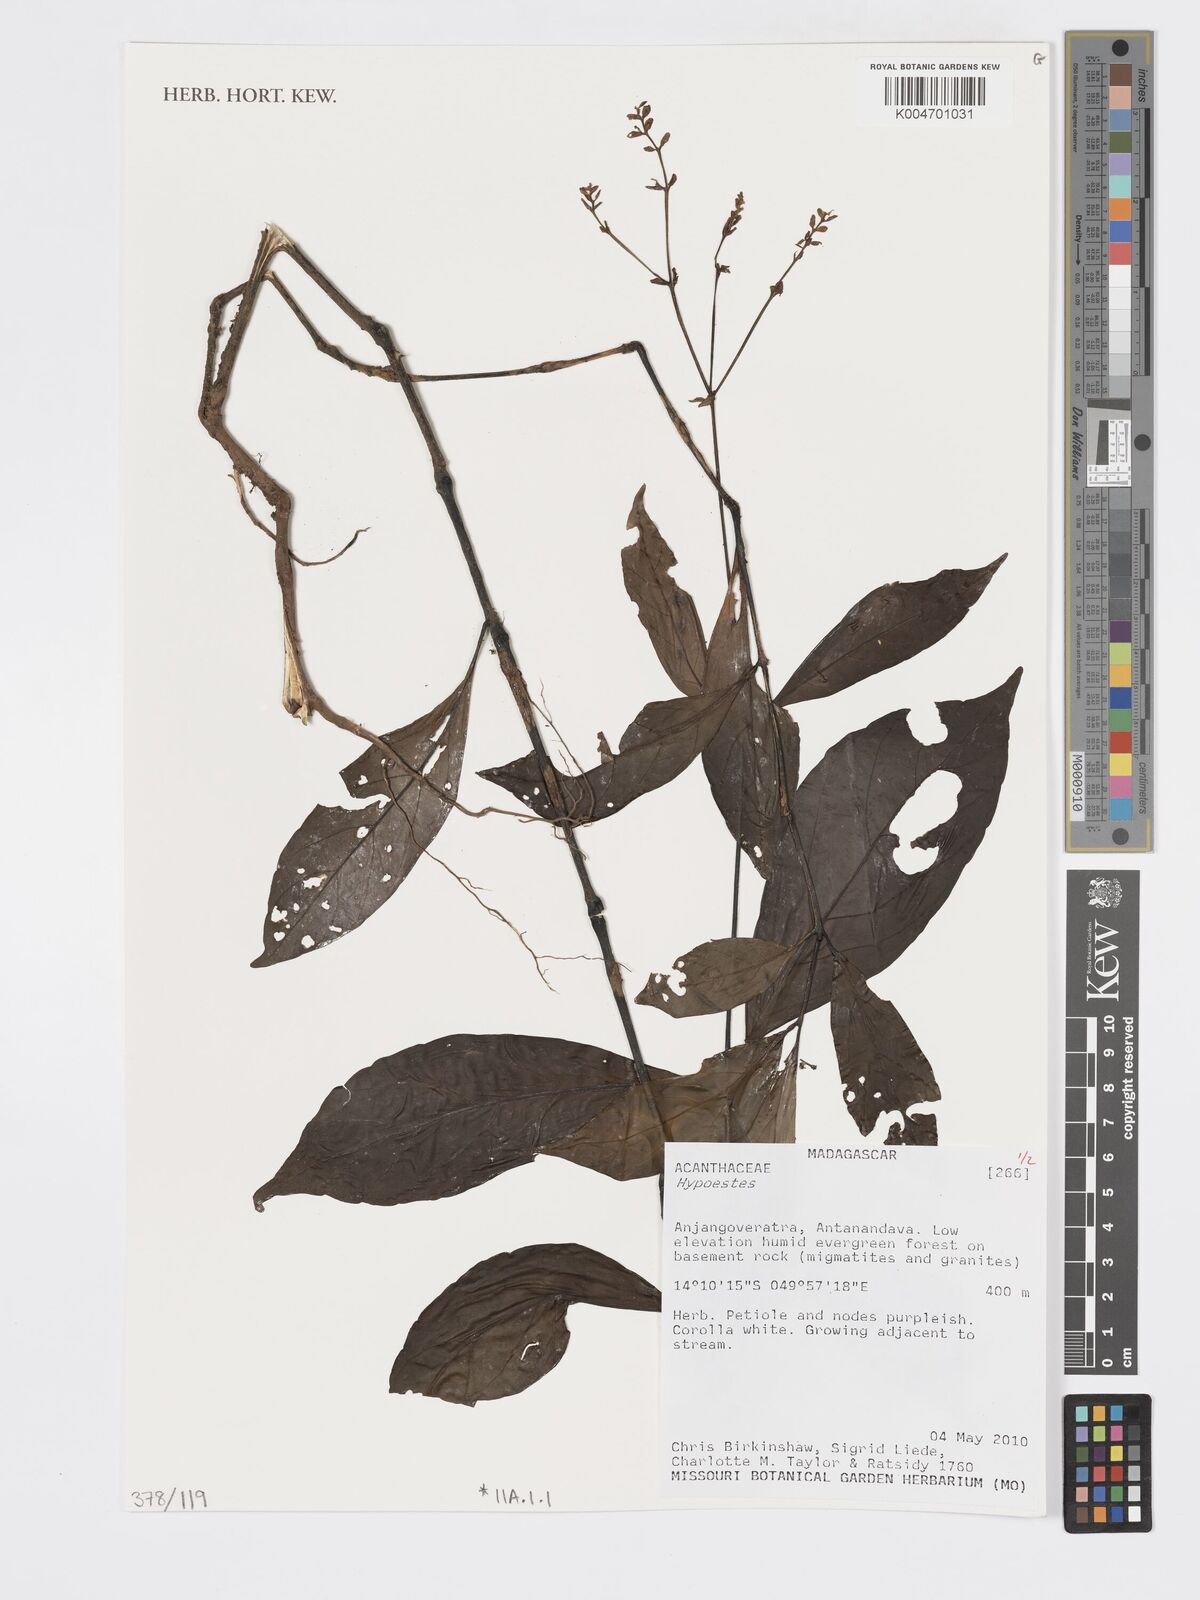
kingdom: Plantae
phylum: Tracheophyta
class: Magnoliopsida
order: Lamiales
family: Acanthaceae
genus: Hypoestes
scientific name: Hypoestes
